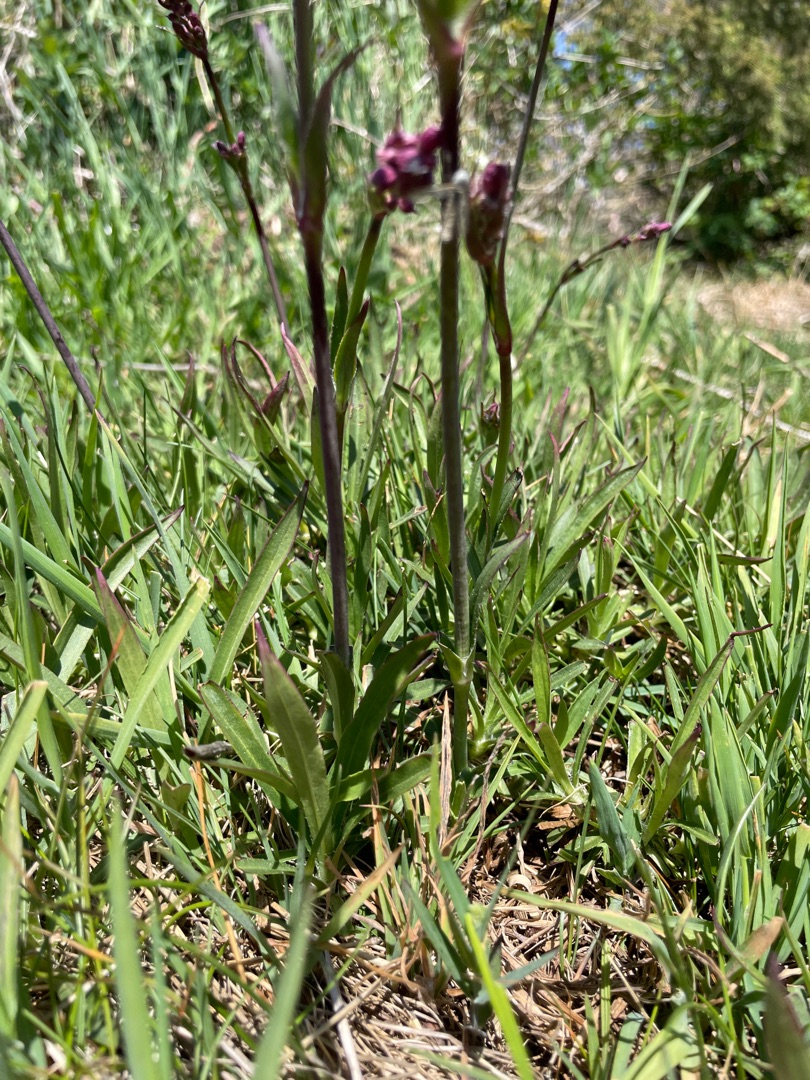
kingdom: Plantae
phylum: Tracheophyta
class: Magnoliopsida
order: Caryophyllales
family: Caryophyllaceae
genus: Viscaria
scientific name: Viscaria vulgaris
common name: Tjærenellike
